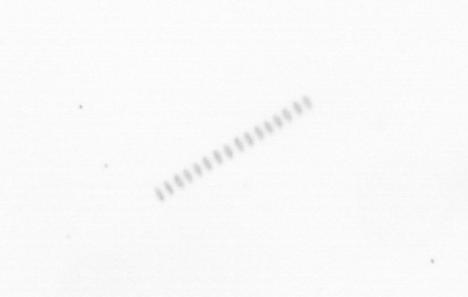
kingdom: Chromista
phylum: Ochrophyta
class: Bacillariophyceae
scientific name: Bacillariophyceae
